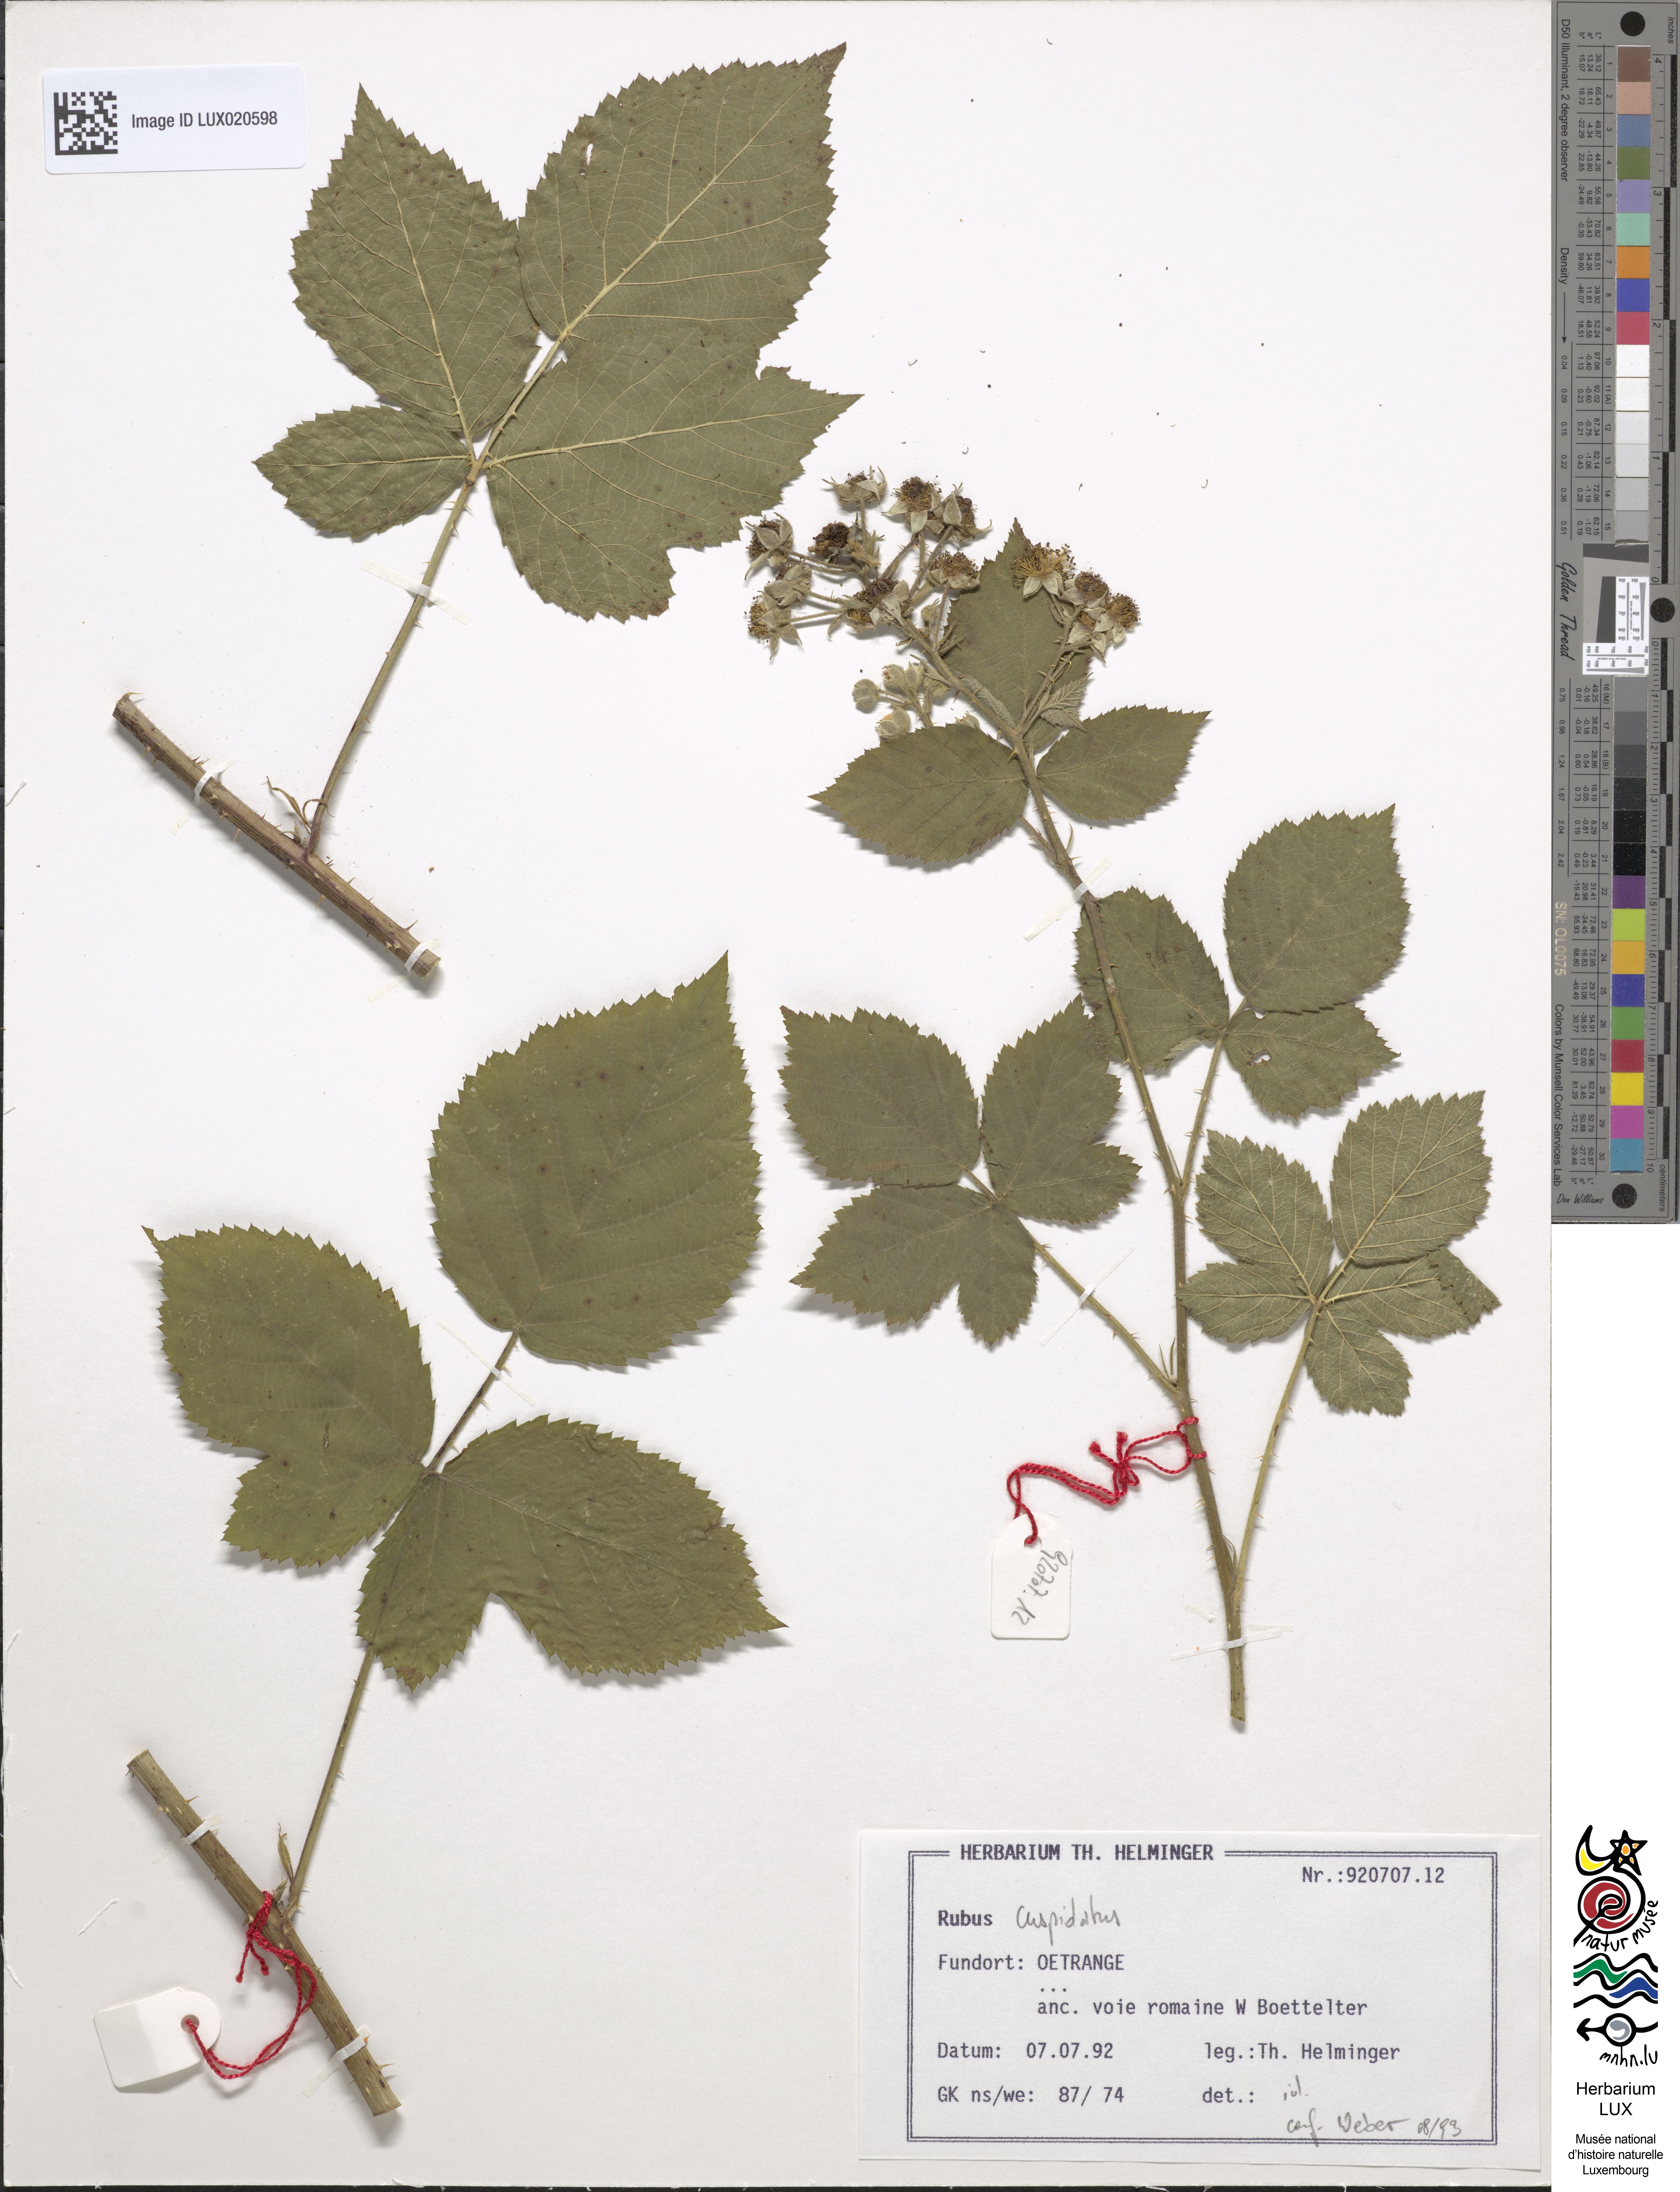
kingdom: Plantae
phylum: Tracheophyta
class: Magnoliopsida
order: Rosales
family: Rosaceae
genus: Rubus
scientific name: Rubus cuspidatus
